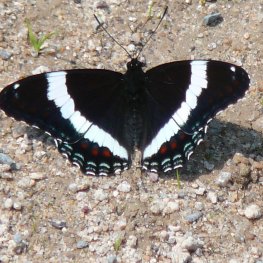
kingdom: Animalia
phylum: Arthropoda
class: Insecta
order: Lepidoptera
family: Nymphalidae
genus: Limenitis
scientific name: Limenitis arthemis
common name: Red-spotted Admiral
